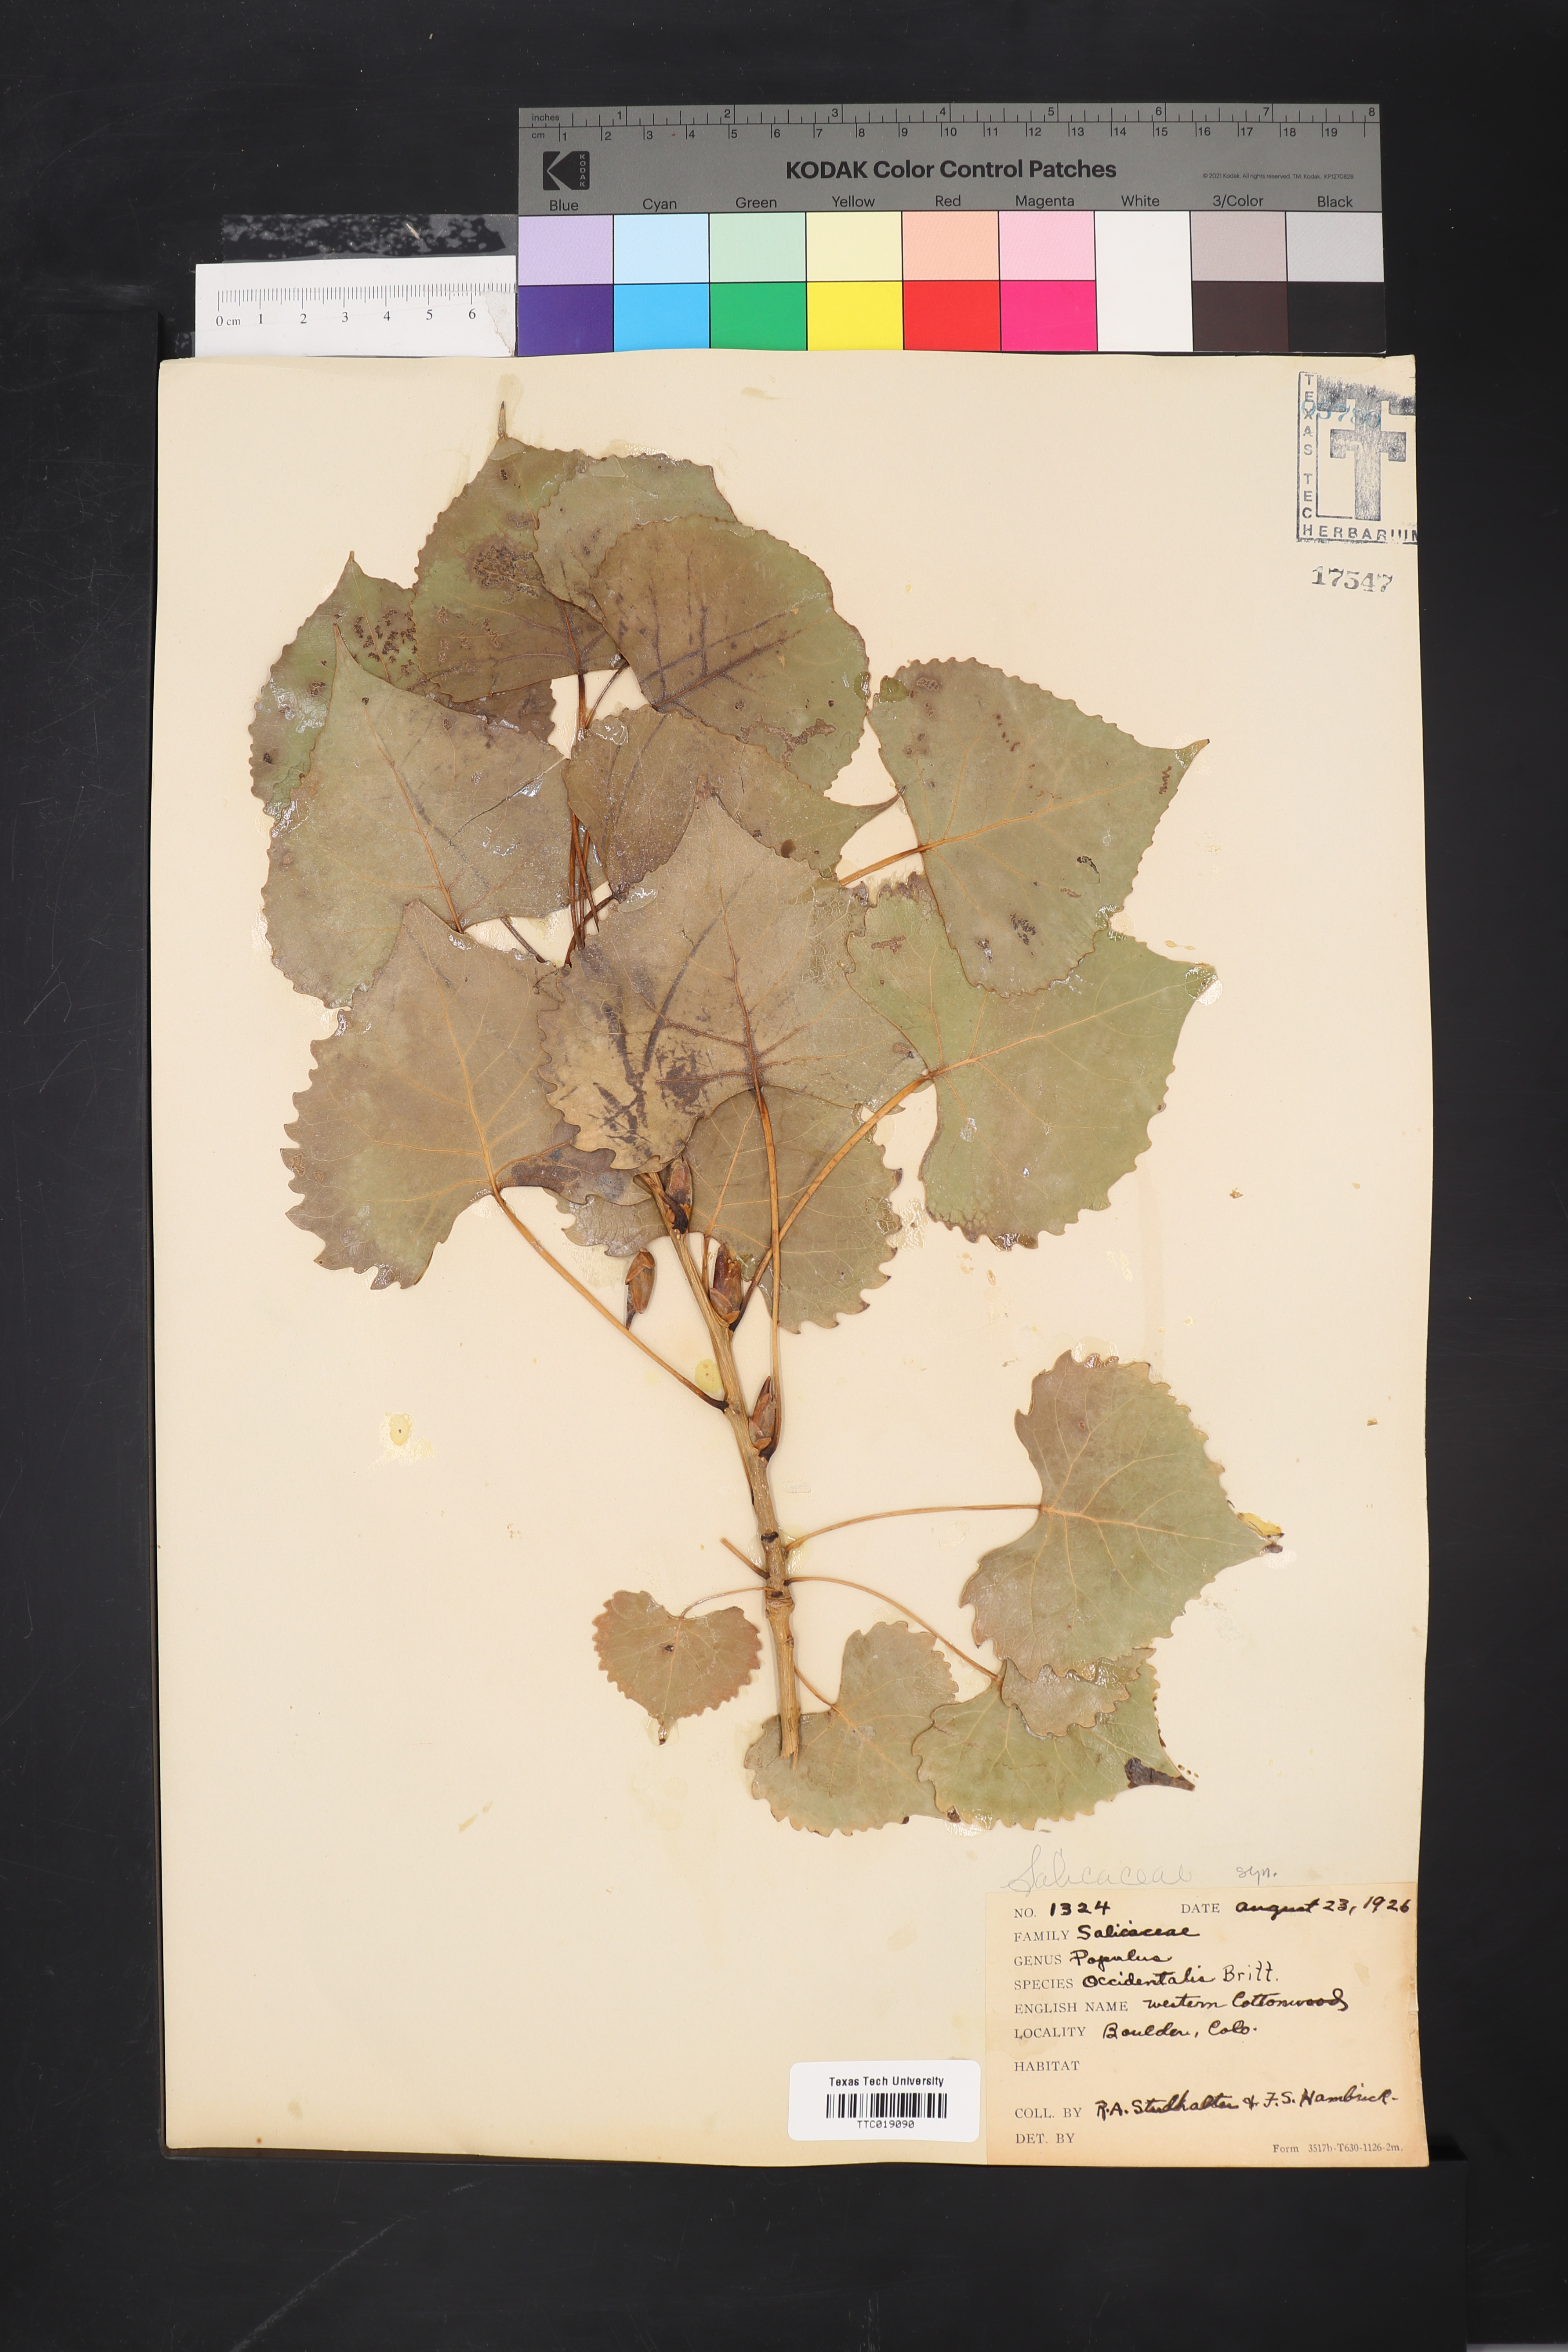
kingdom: Plantae
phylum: Tracheophyta
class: Magnoliopsida
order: Malpighiales
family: Salicaceae
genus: Populus
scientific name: Populus deltoides
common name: Eastern cottonwood
